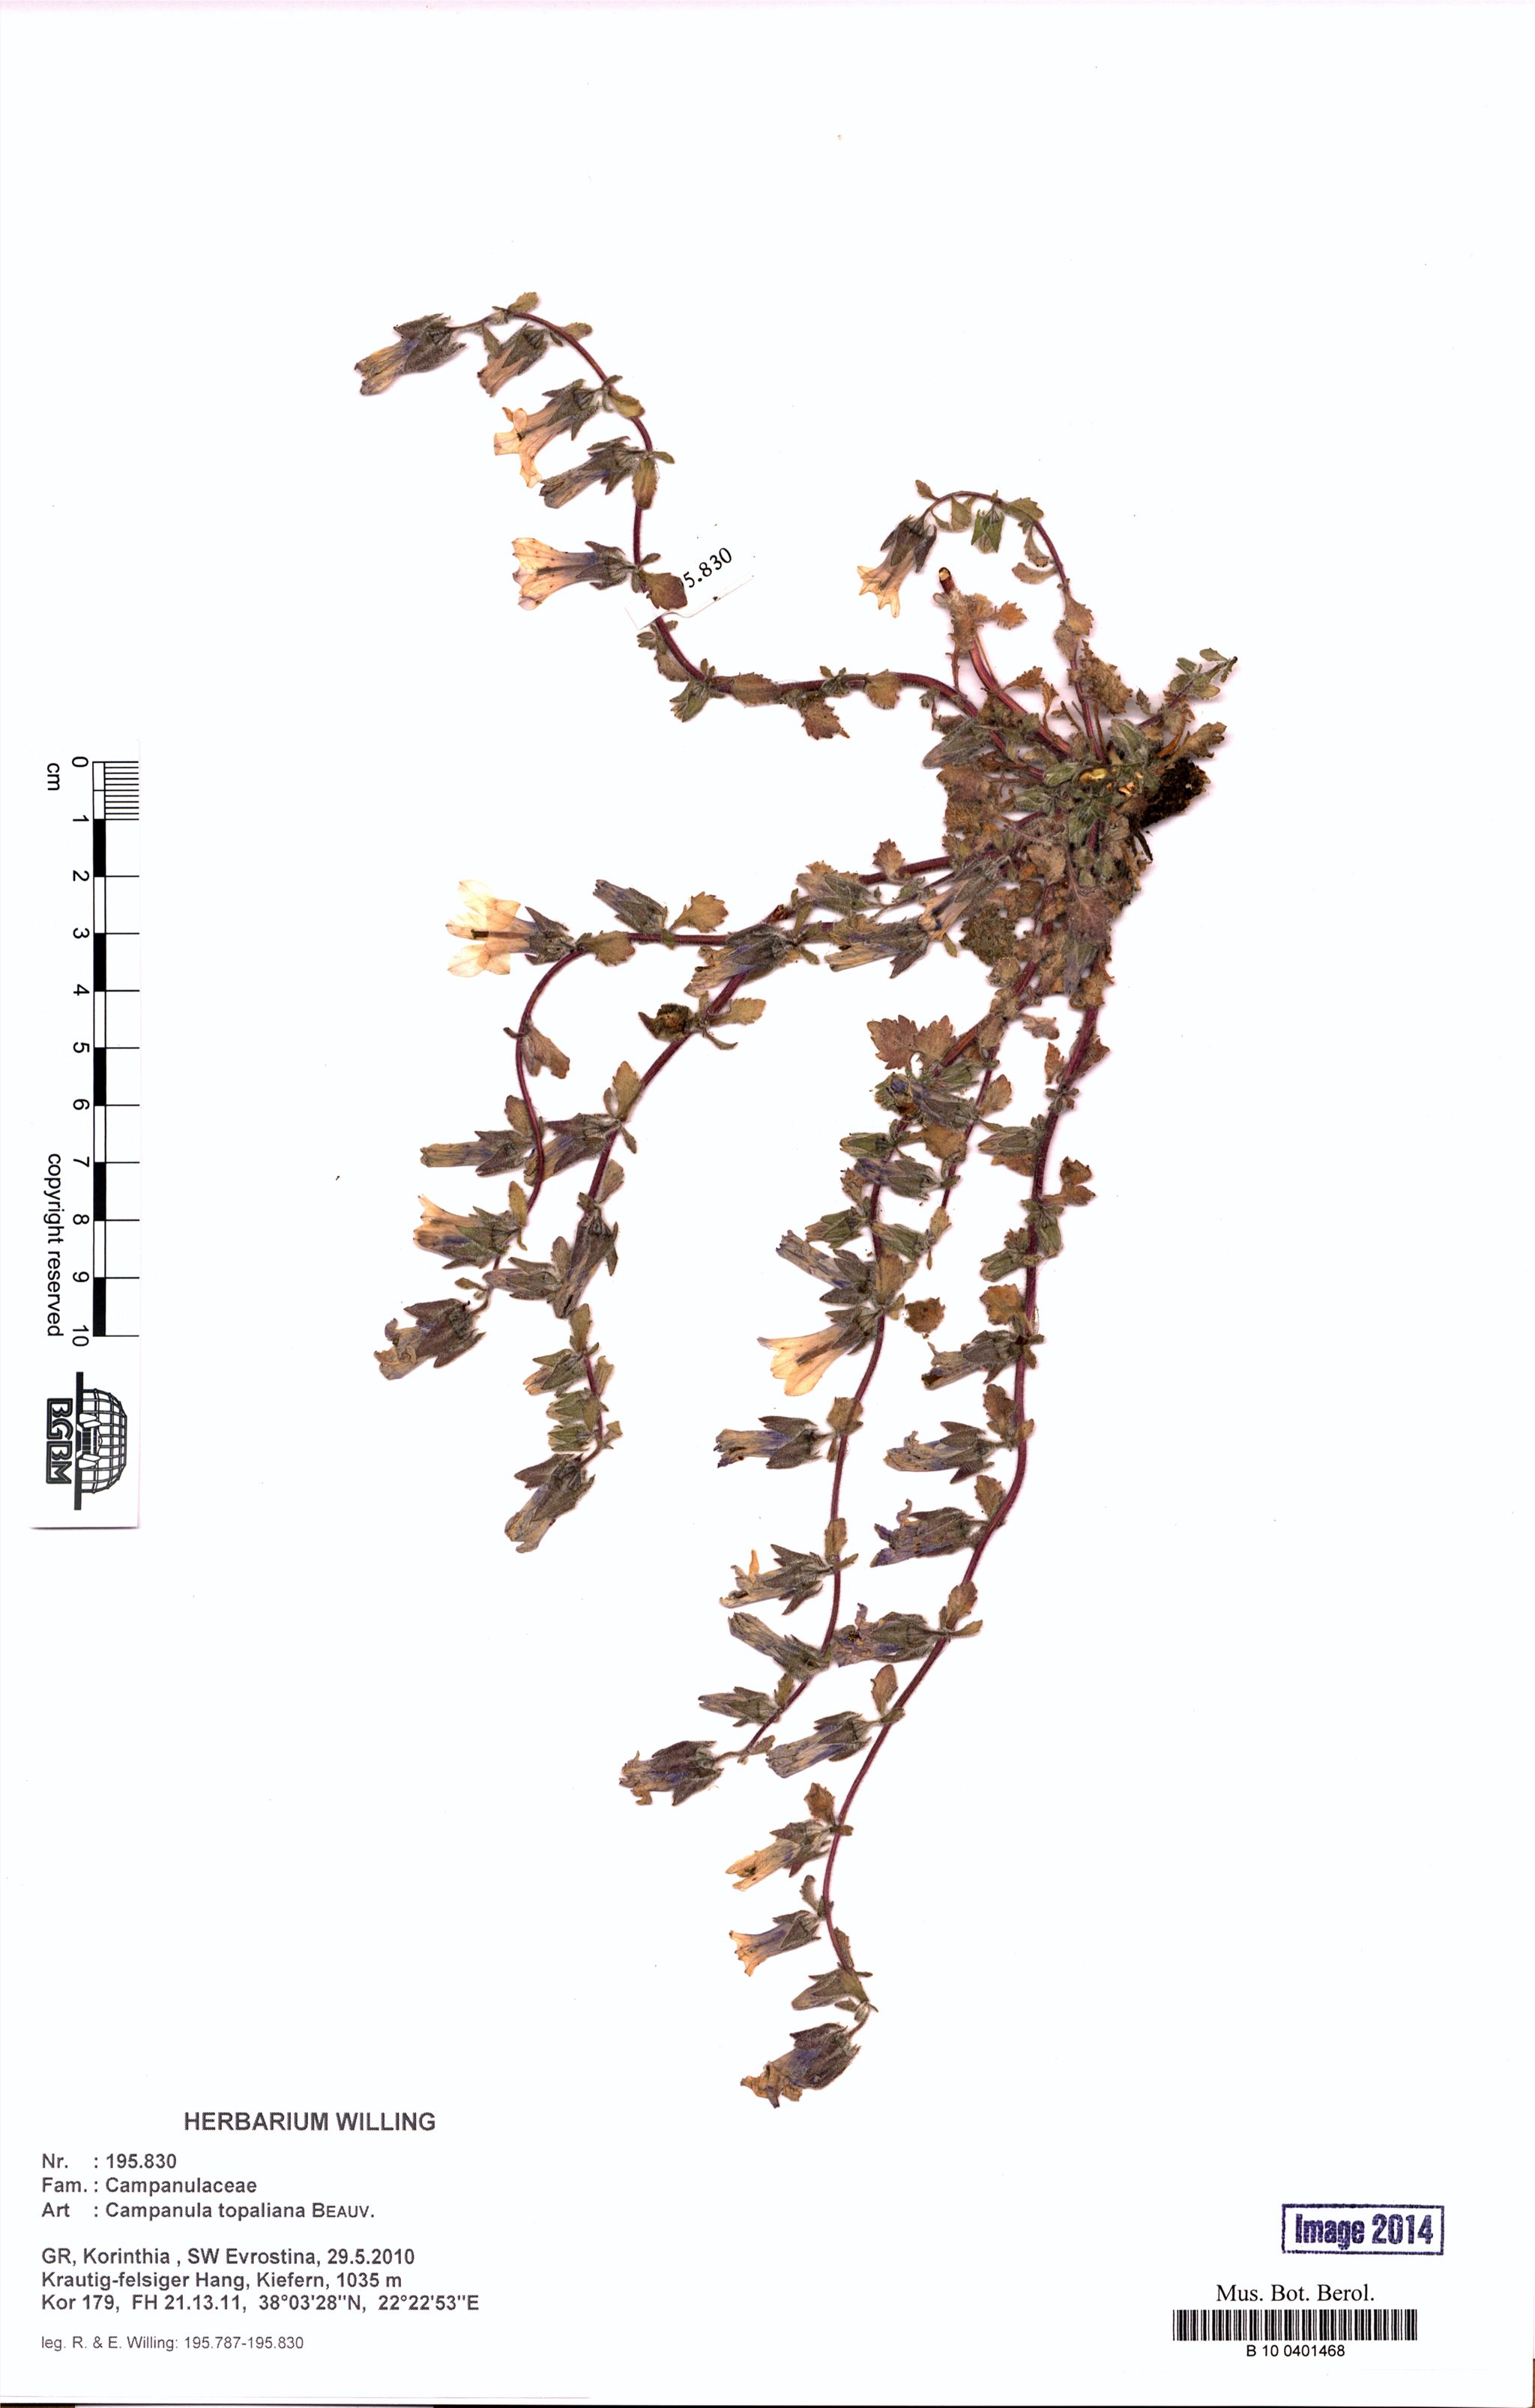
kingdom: Plantae
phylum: Tracheophyta
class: Magnoliopsida
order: Asterales
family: Campanulaceae
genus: Campanula
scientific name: Campanula topaliana
